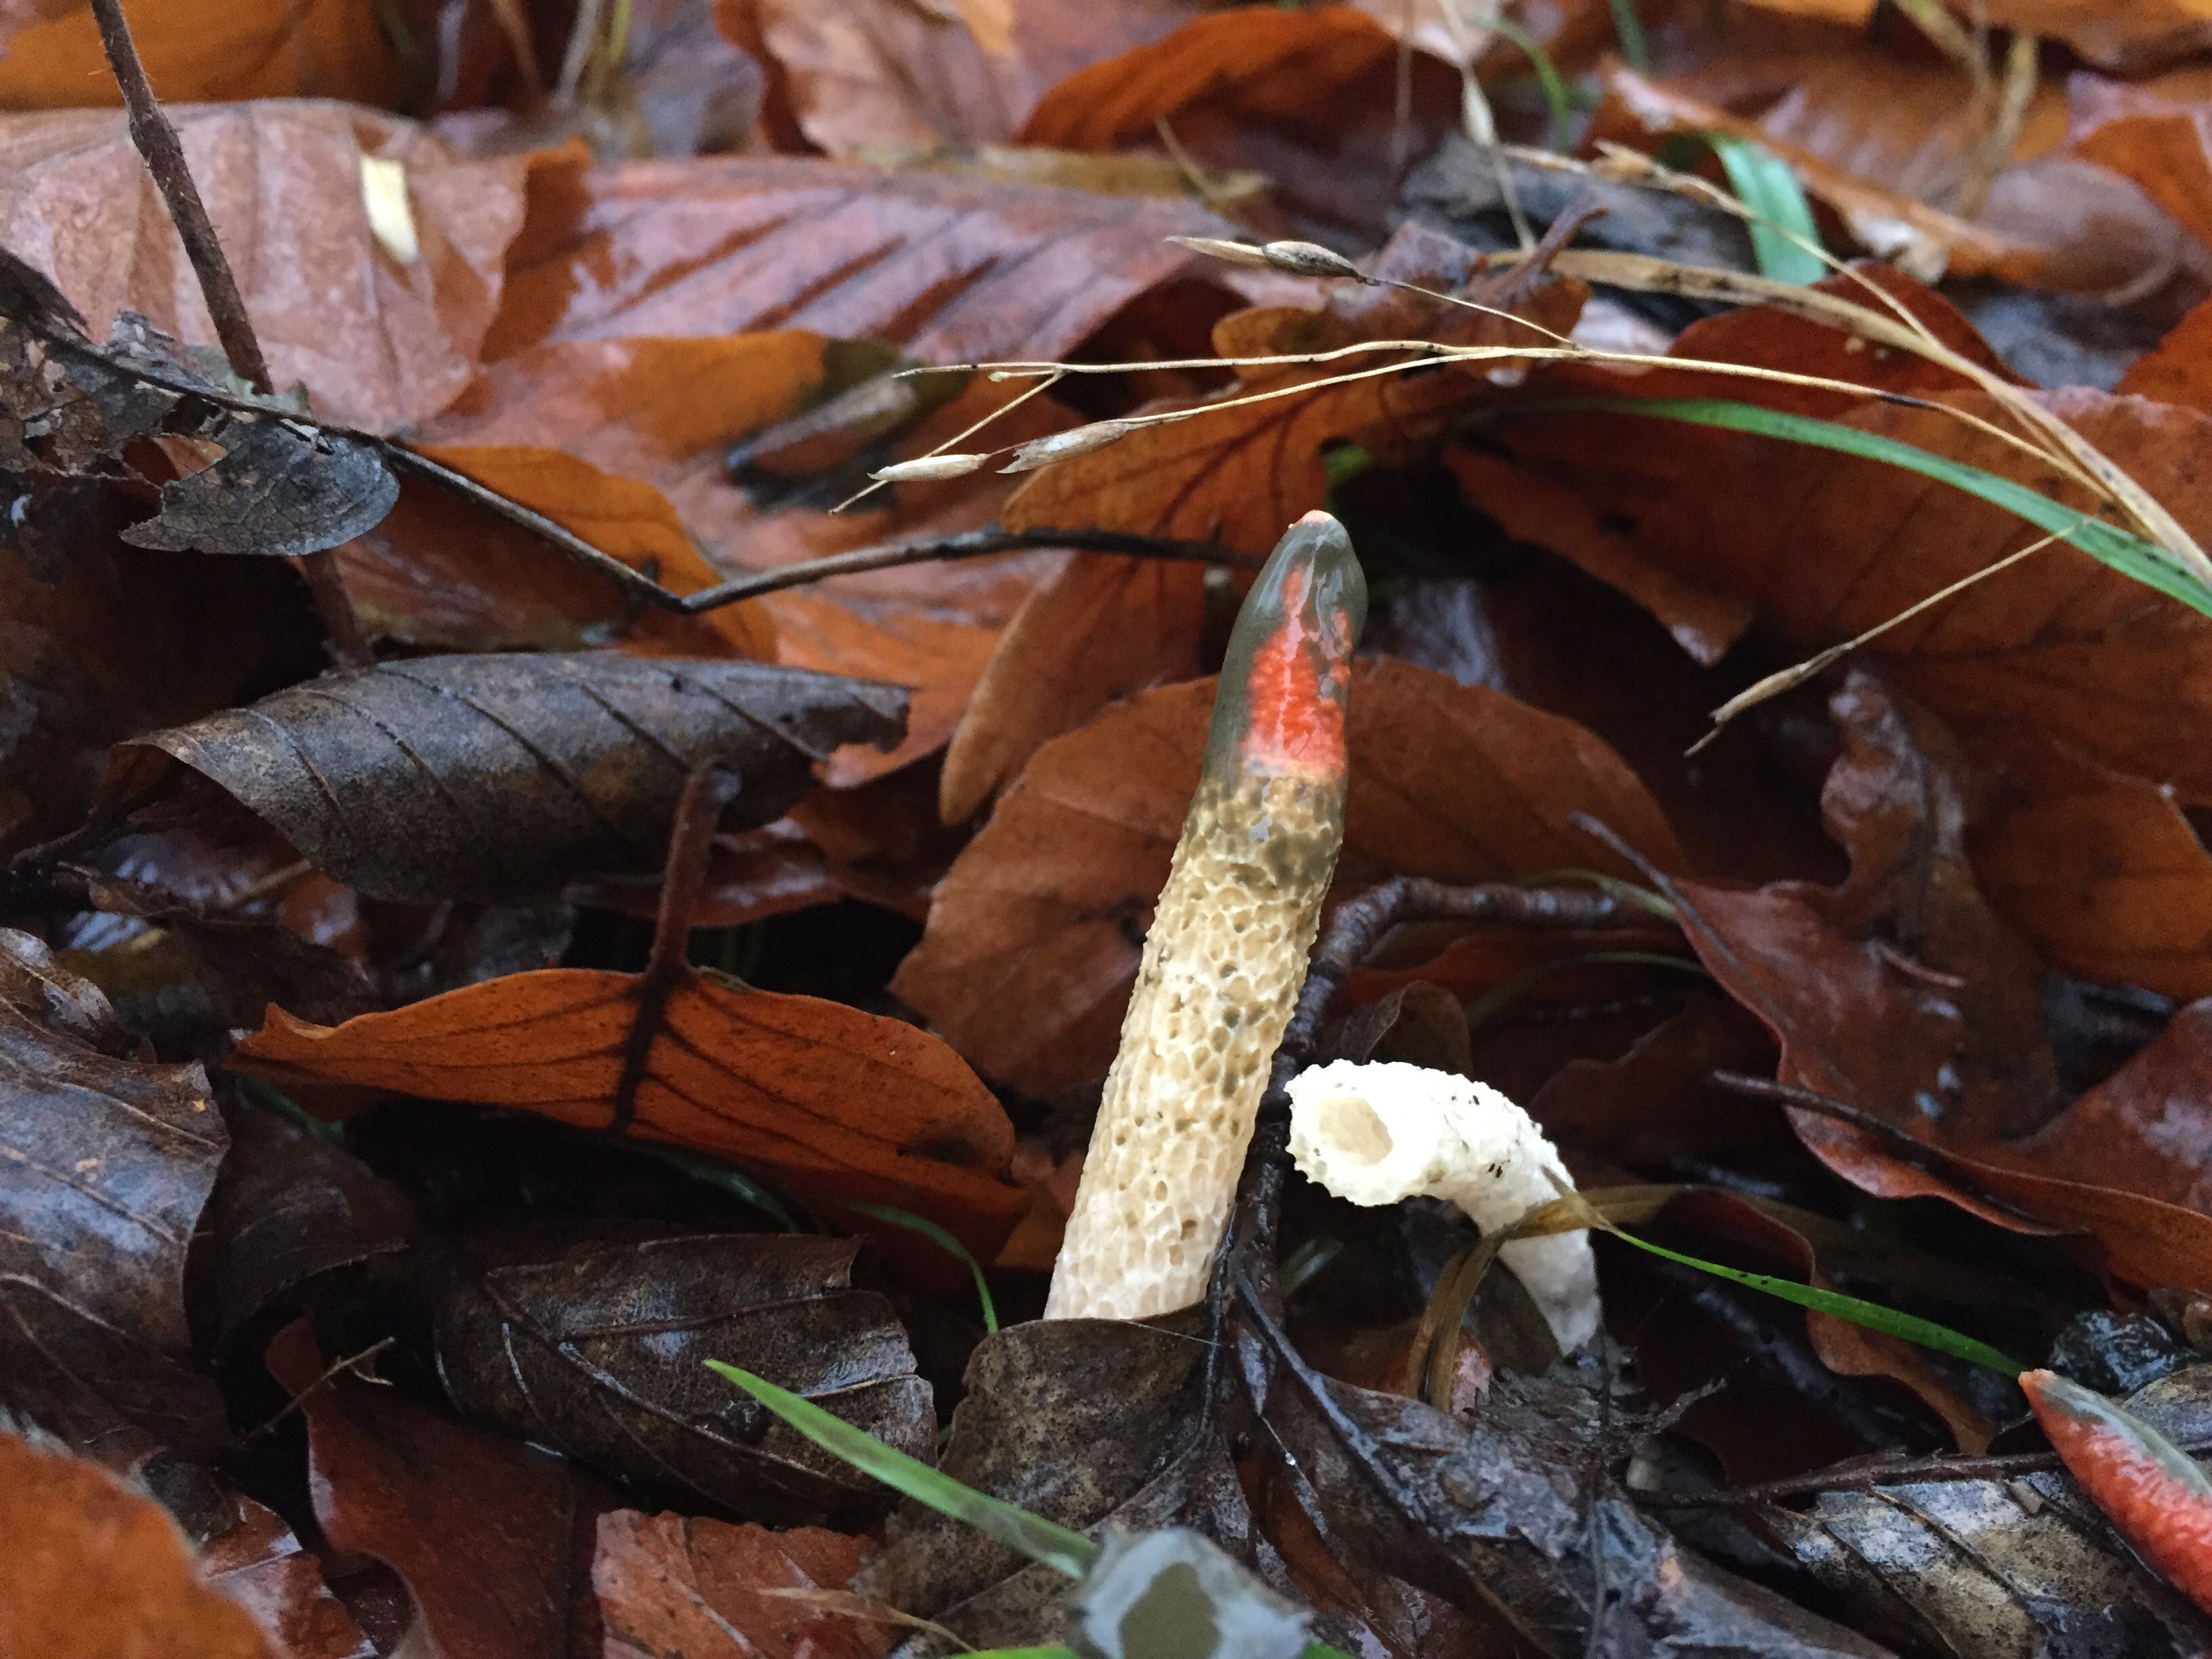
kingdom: Fungi
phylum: Basidiomycota
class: Agaricomycetes
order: Phallales
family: Phallaceae
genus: Mutinus
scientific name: Mutinus caninus
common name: hunde-stinksvamp
